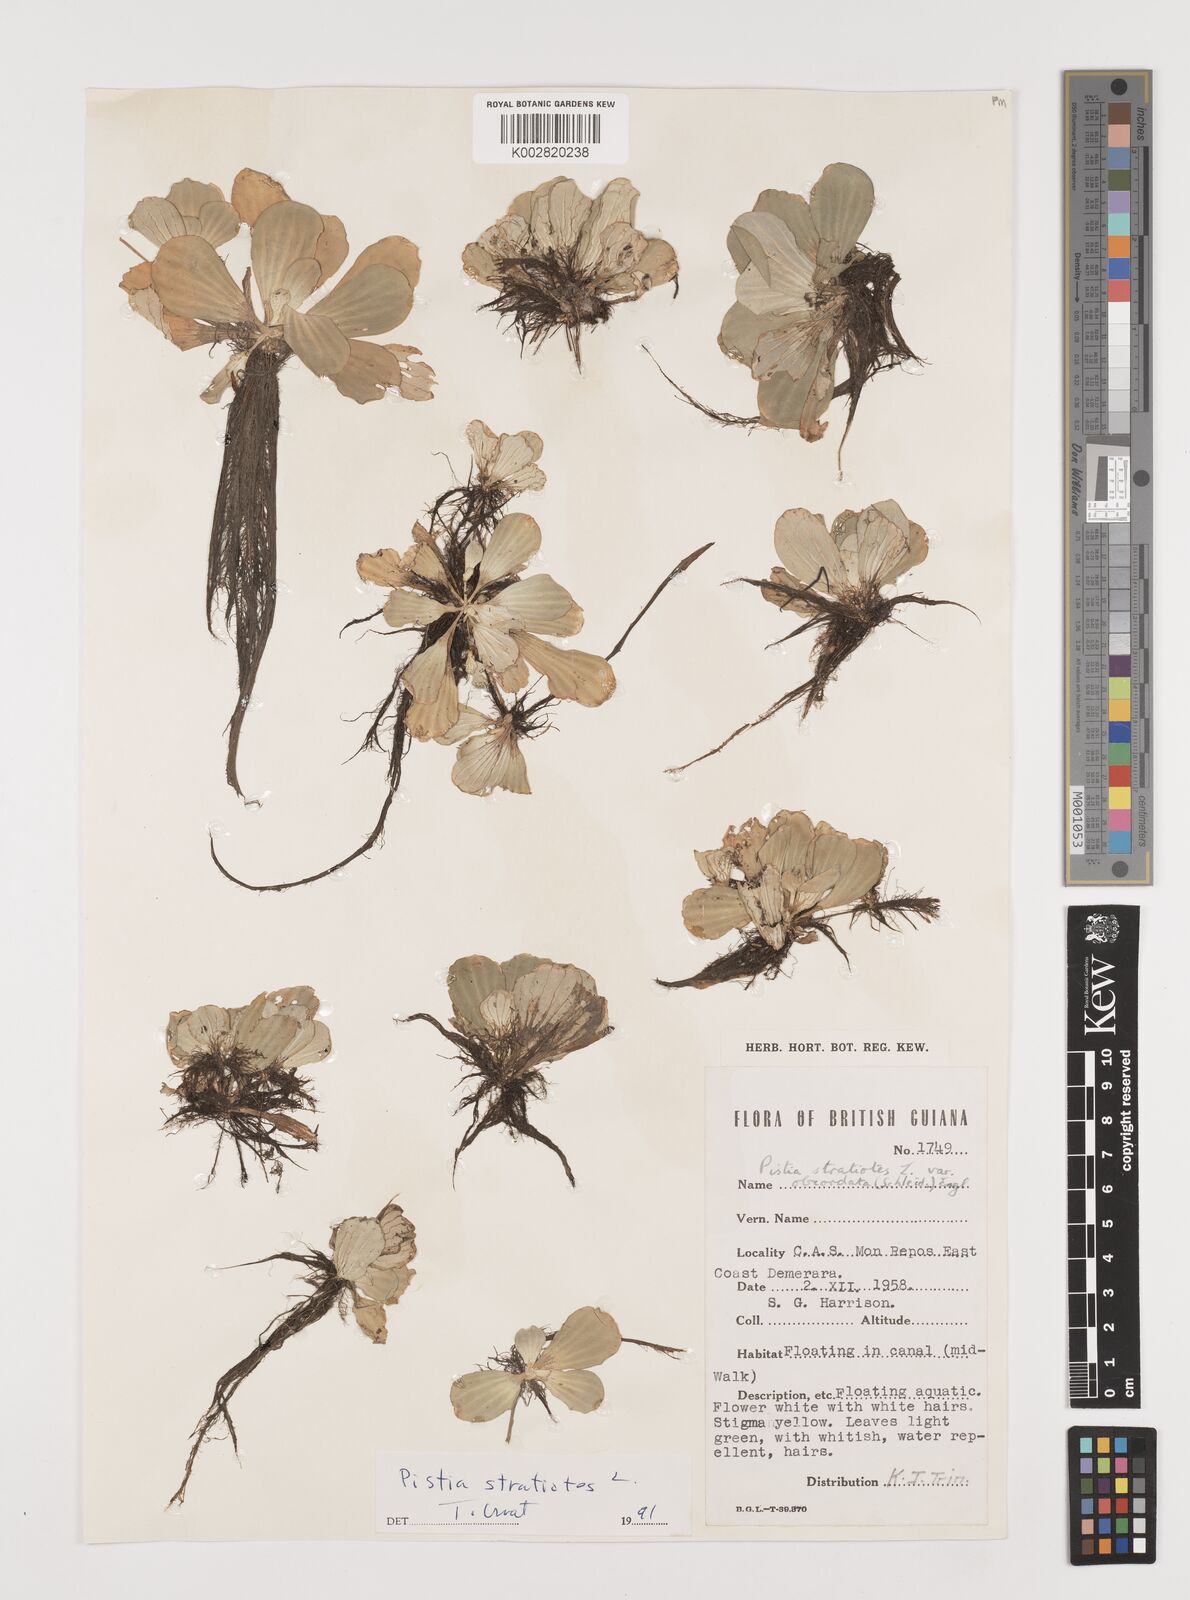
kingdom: Plantae
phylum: Tracheophyta
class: Liliopsida
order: Alismatales
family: Araceae
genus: Pistia
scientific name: Pistia stratiotes
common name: Water lettuce
